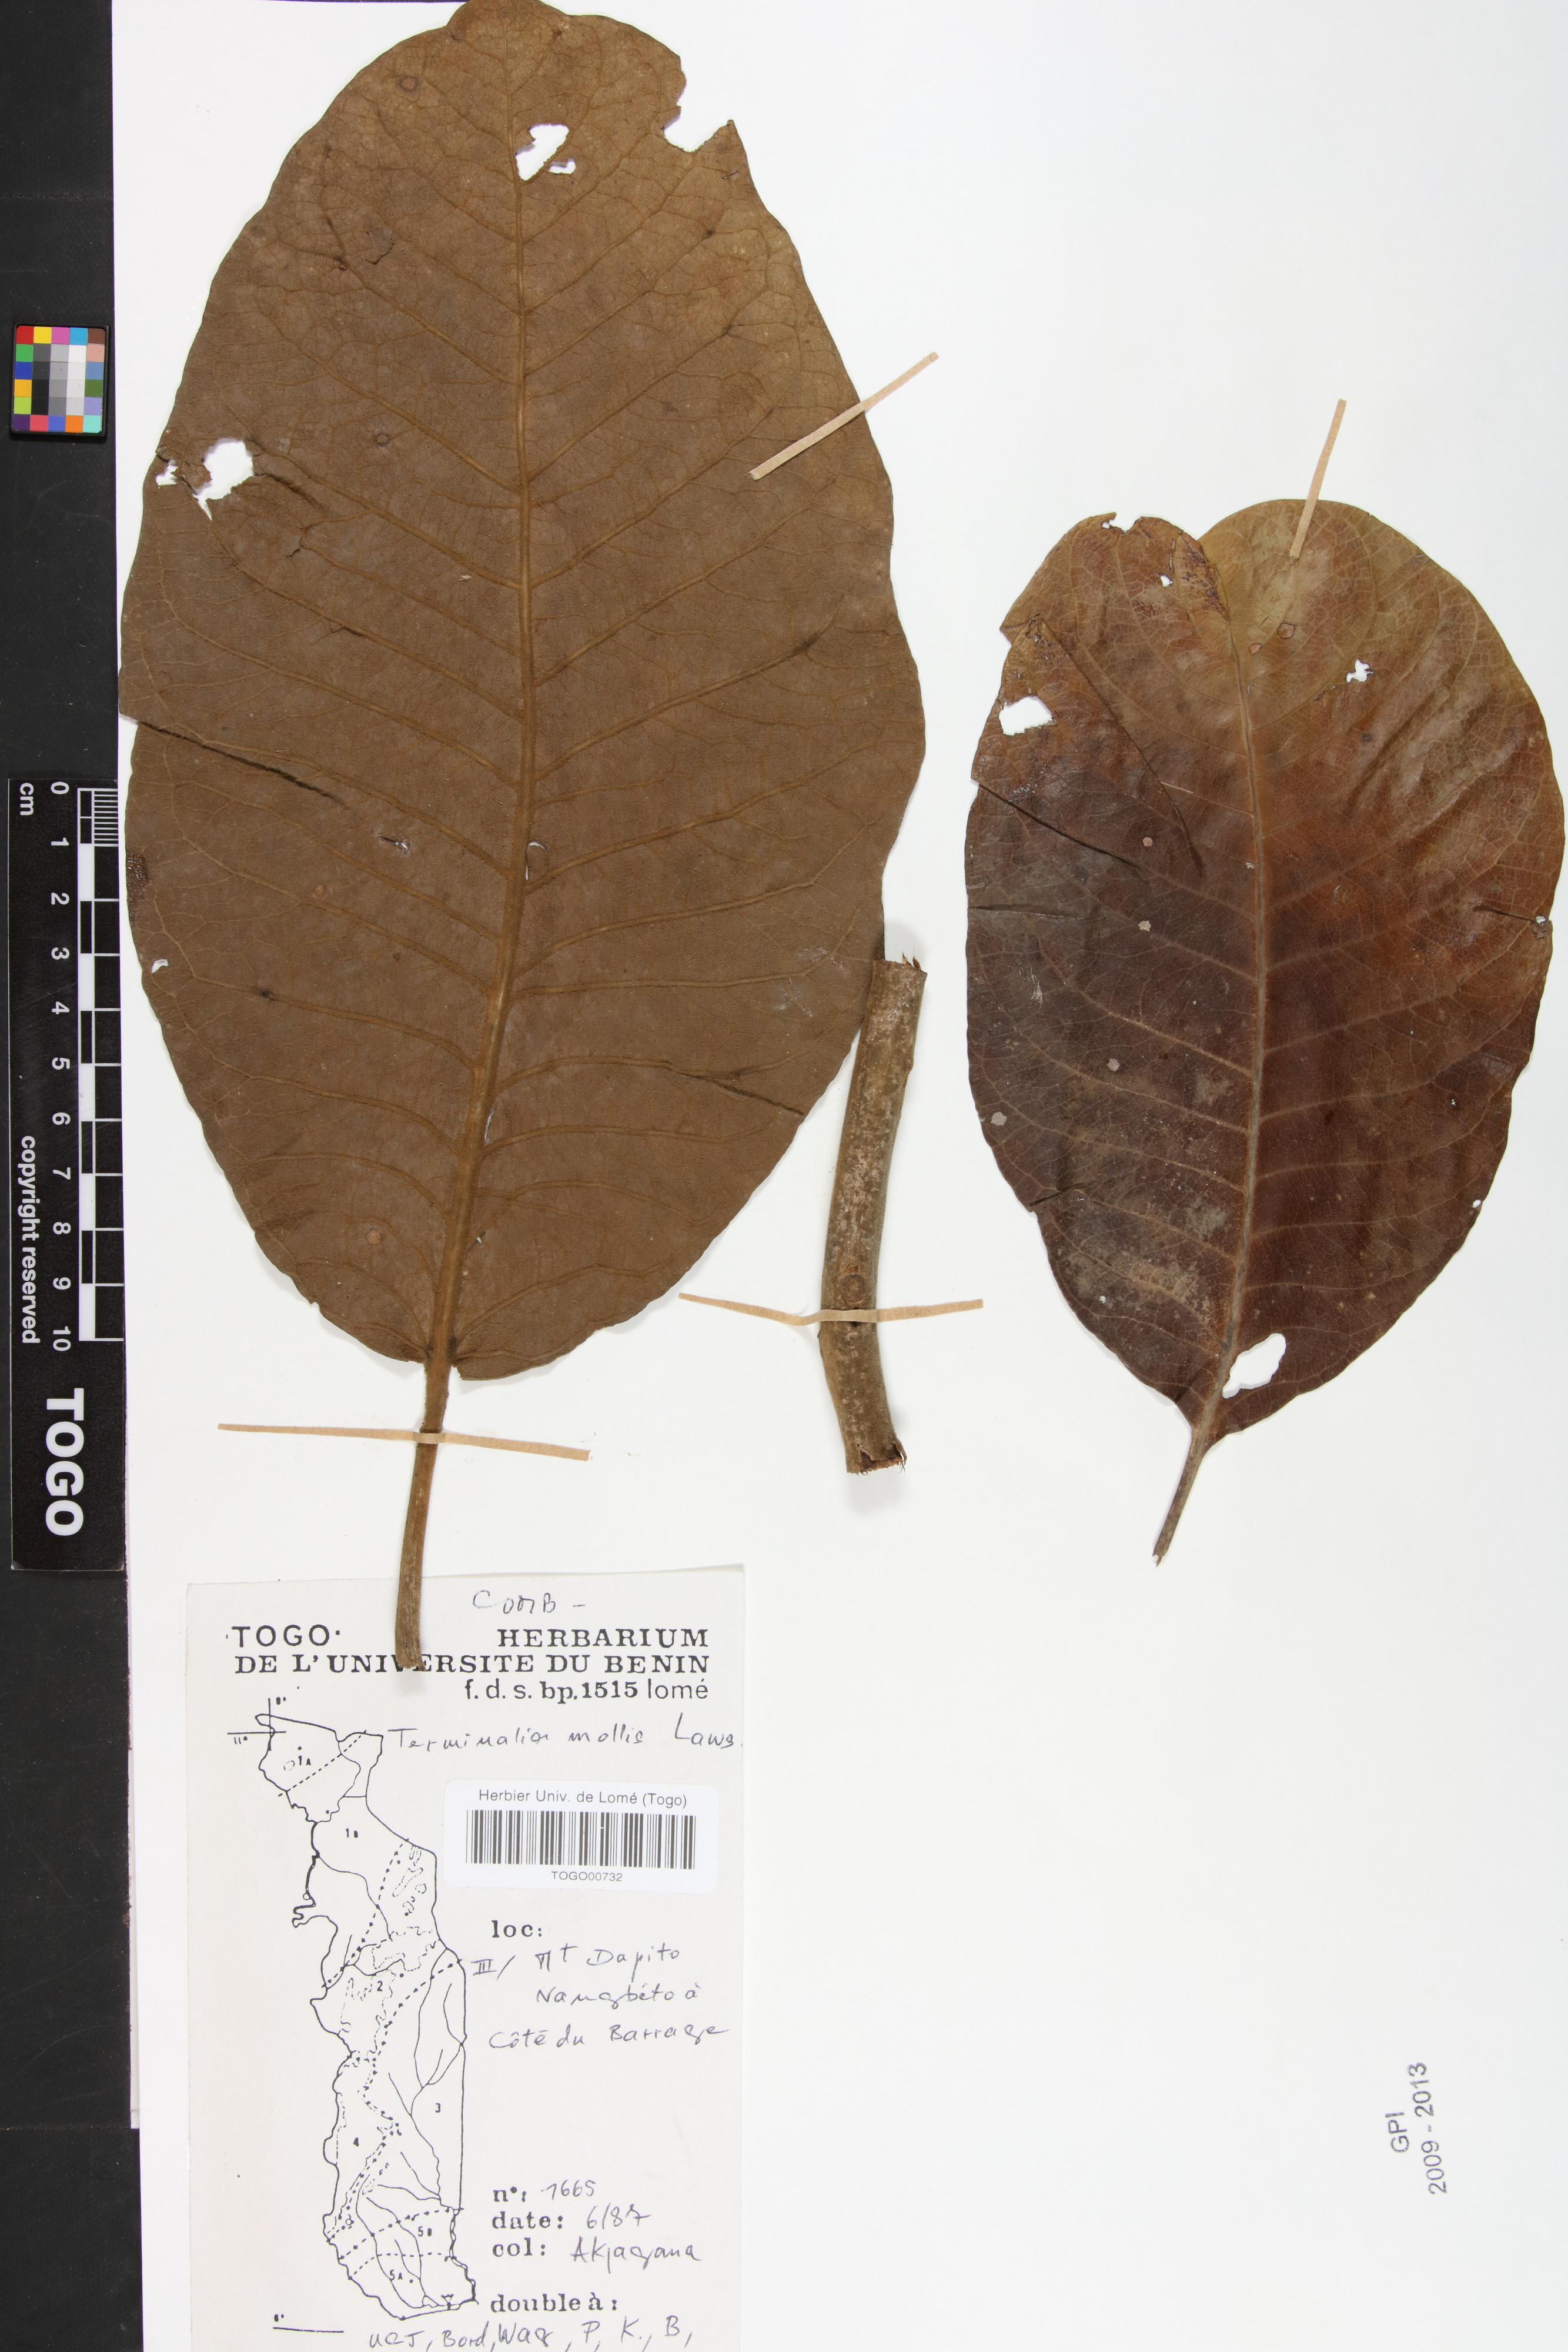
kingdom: Plantae
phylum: Tracheophyta
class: Magnoliopsida
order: Myrtales
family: Combretaceae
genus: Terminalia
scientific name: Terminalia mollis
